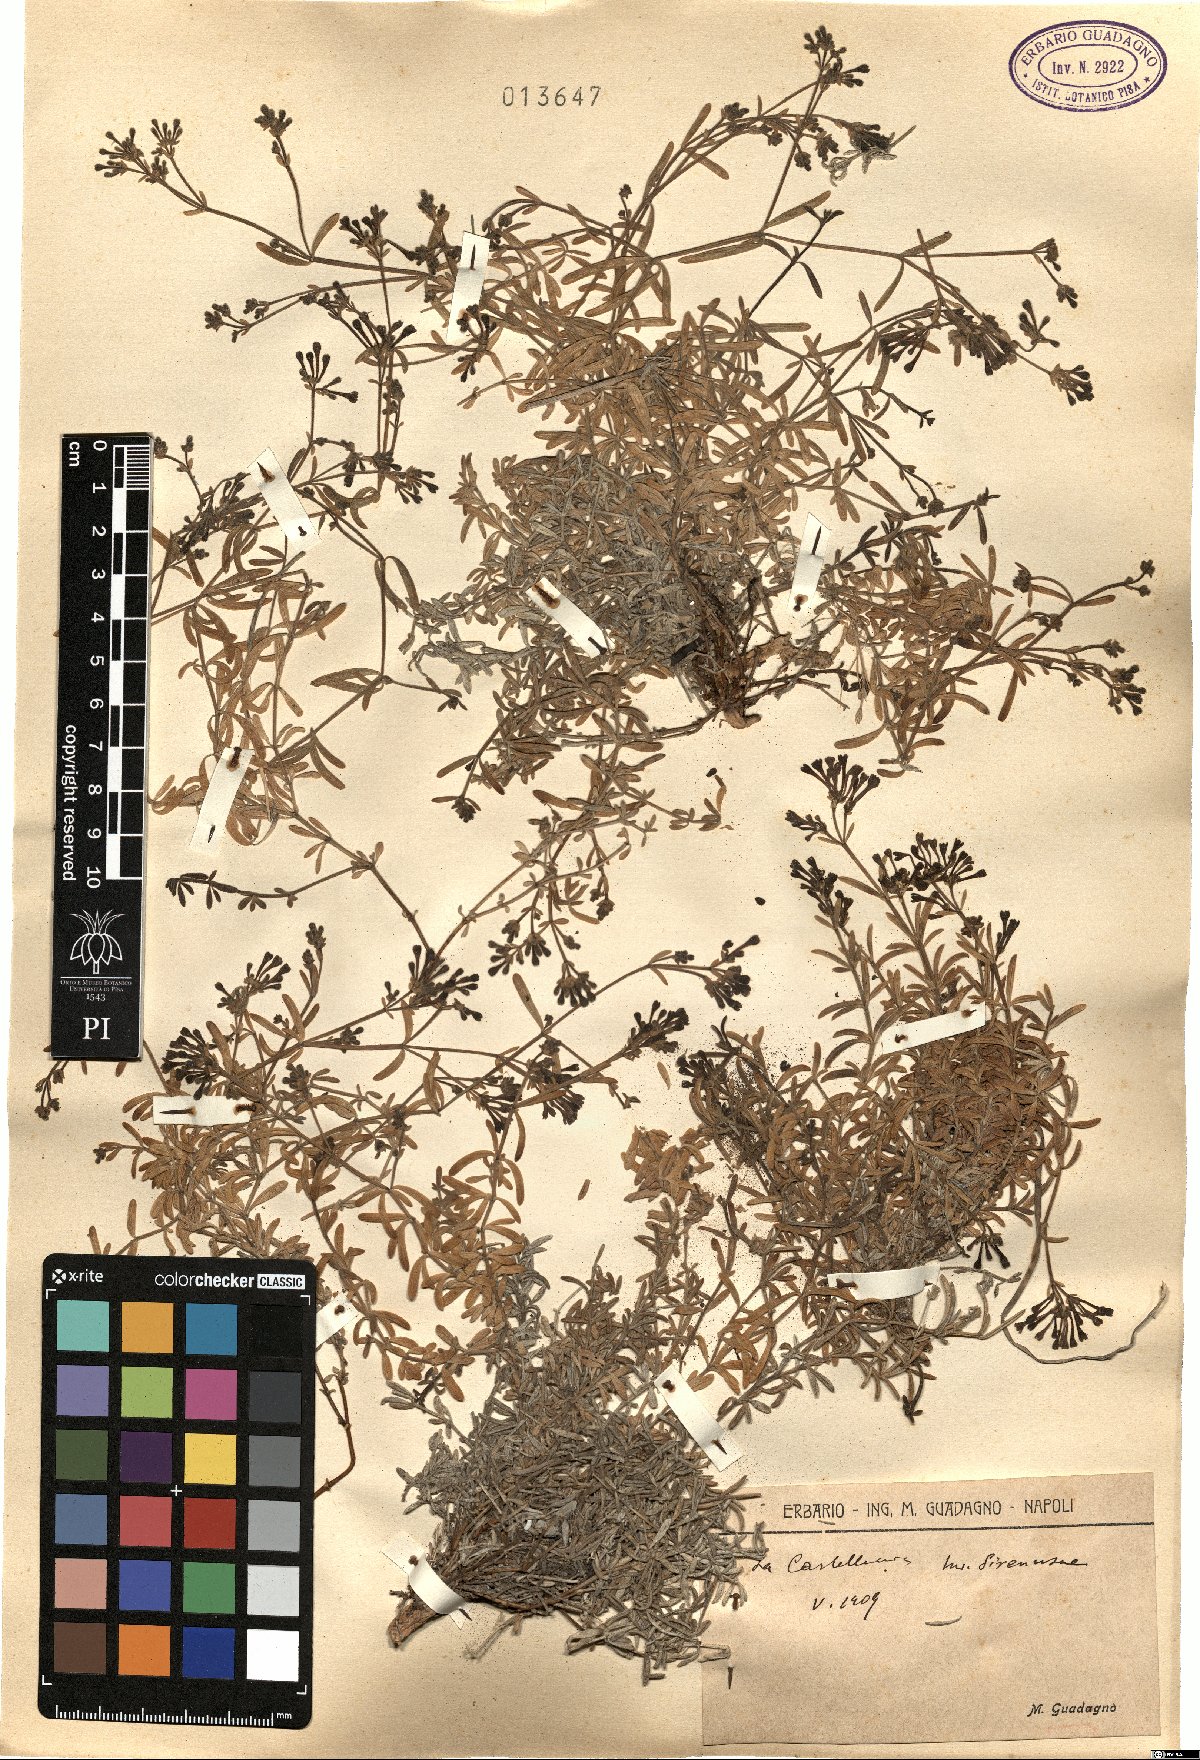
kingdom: Plantae
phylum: Tracheophyta
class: Magnoliopsida
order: Gentianales
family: Rubiaceae
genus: Asperula
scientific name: Asperula
